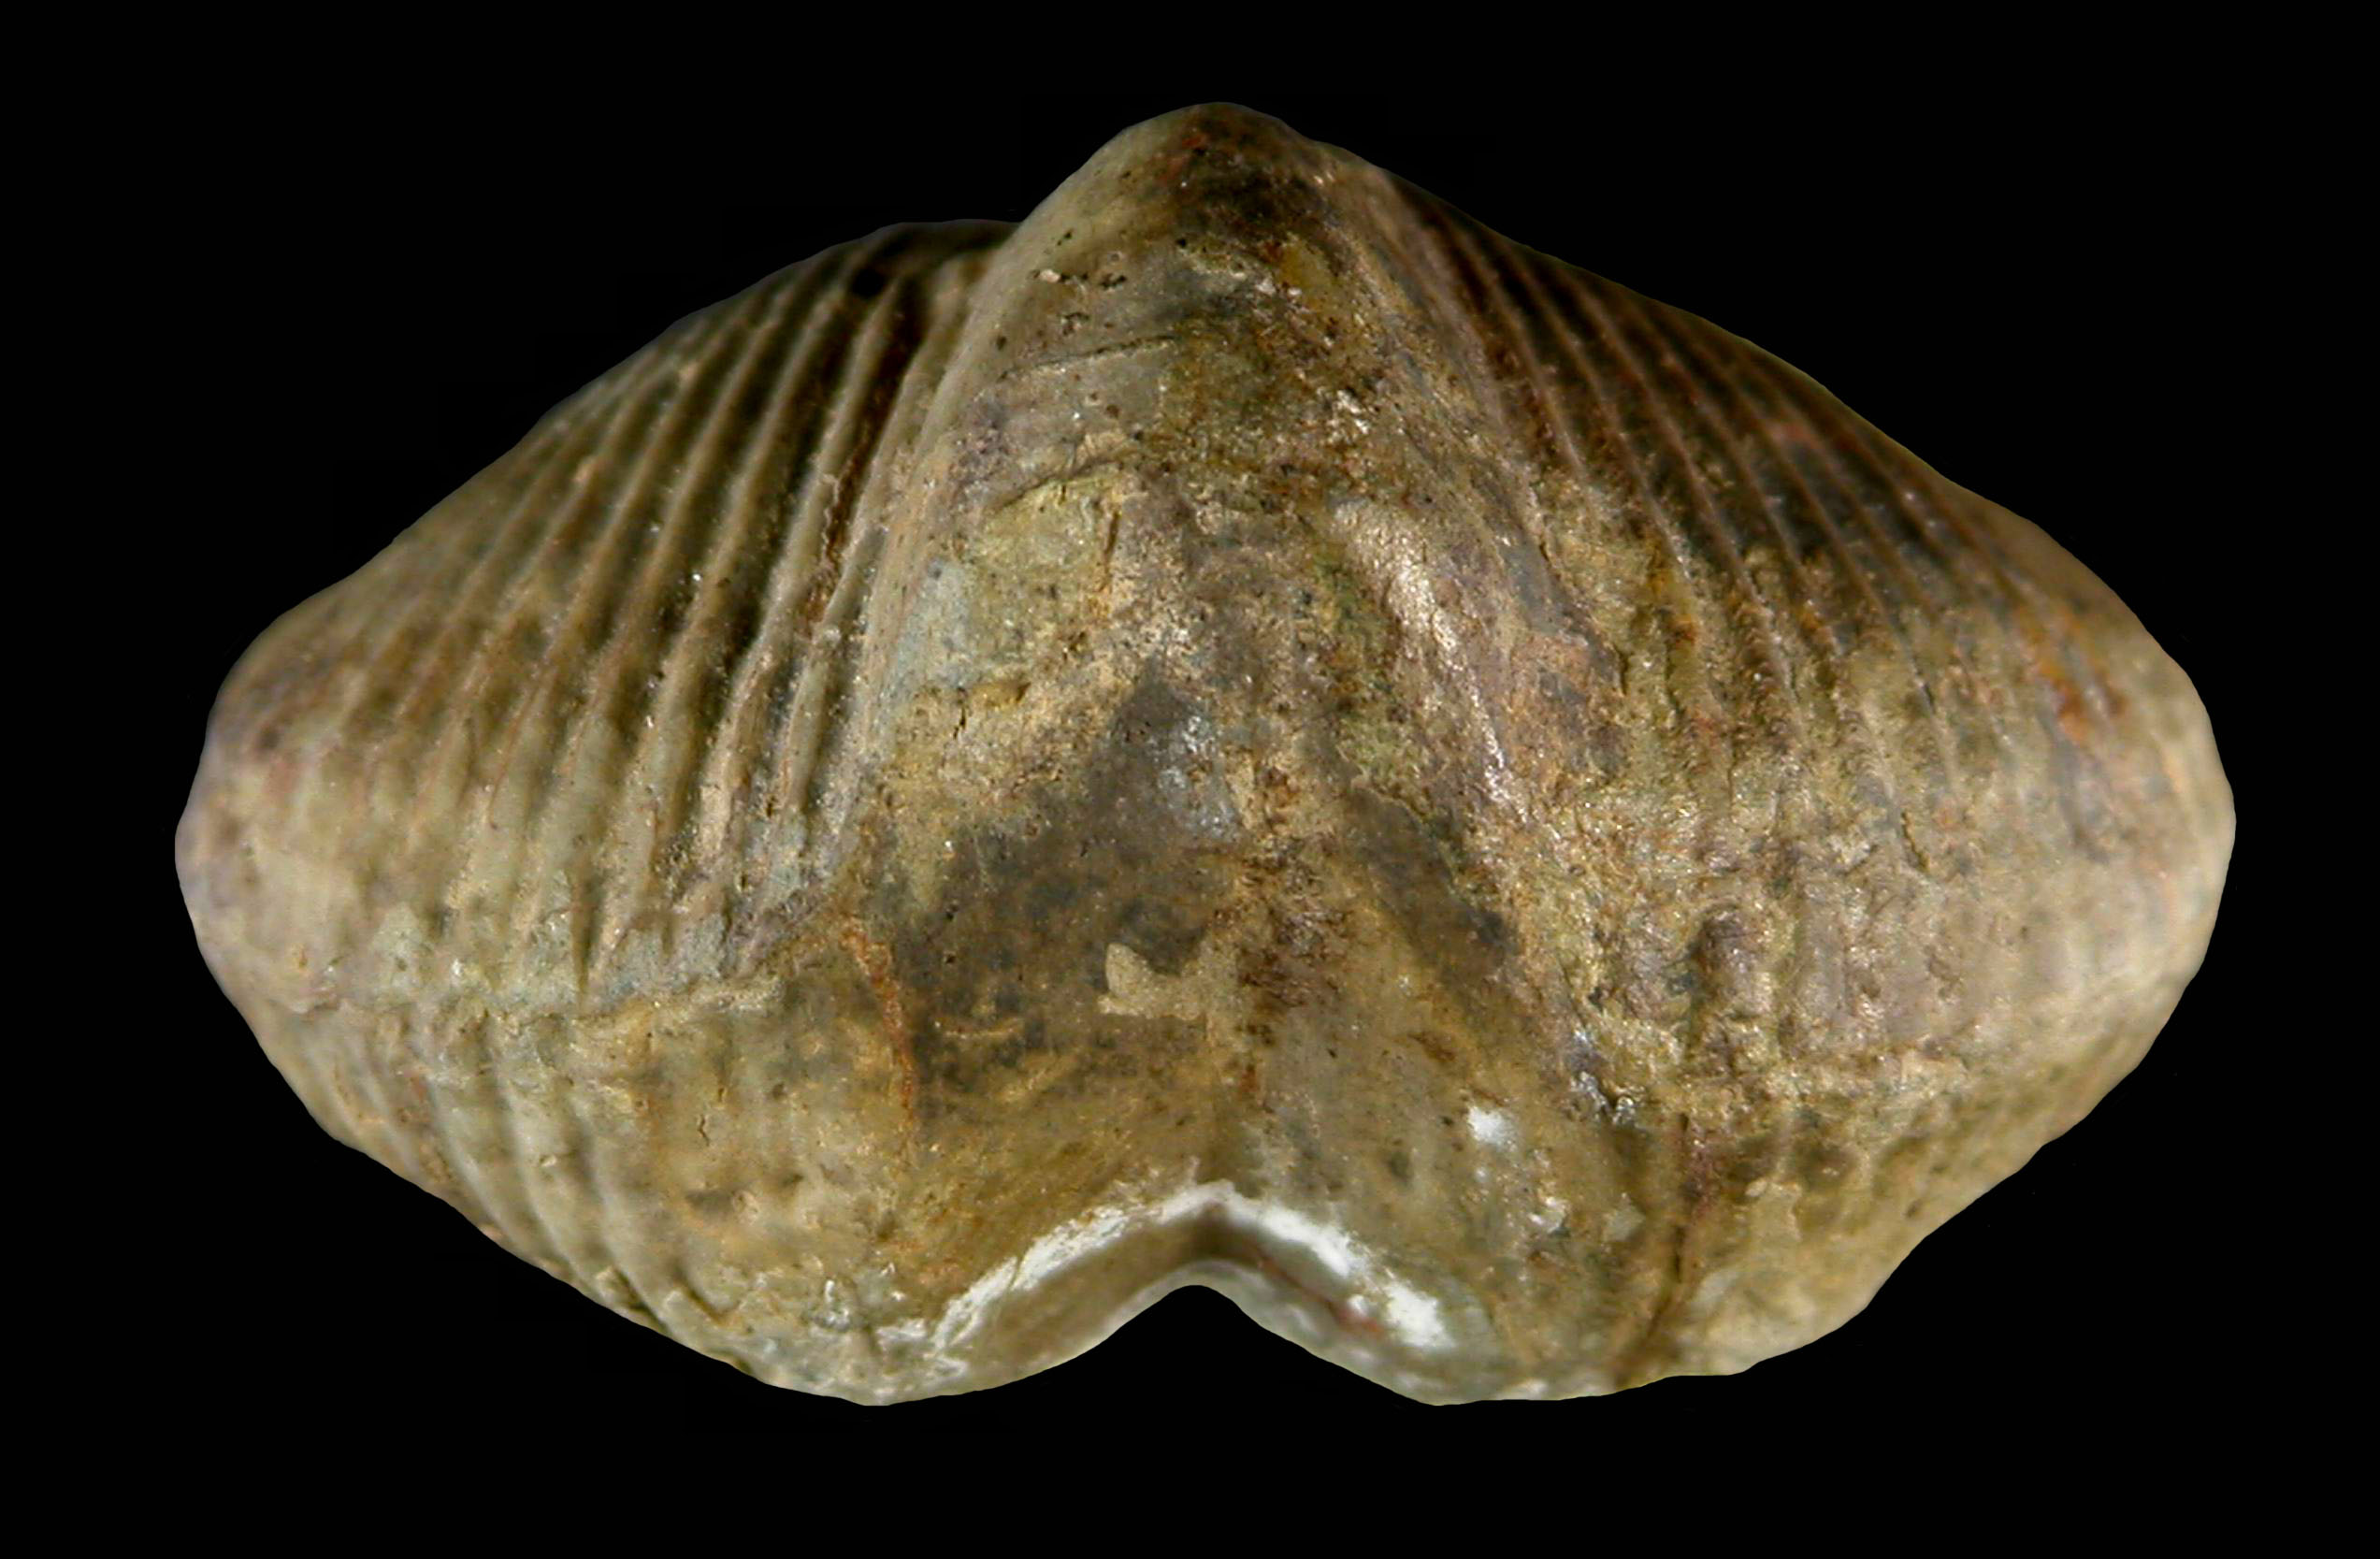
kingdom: Animalia
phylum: Brachiopoda
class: Rhynchonellata
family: Delthyrididae
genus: Brachyspirifer
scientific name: Brachyspirifer
